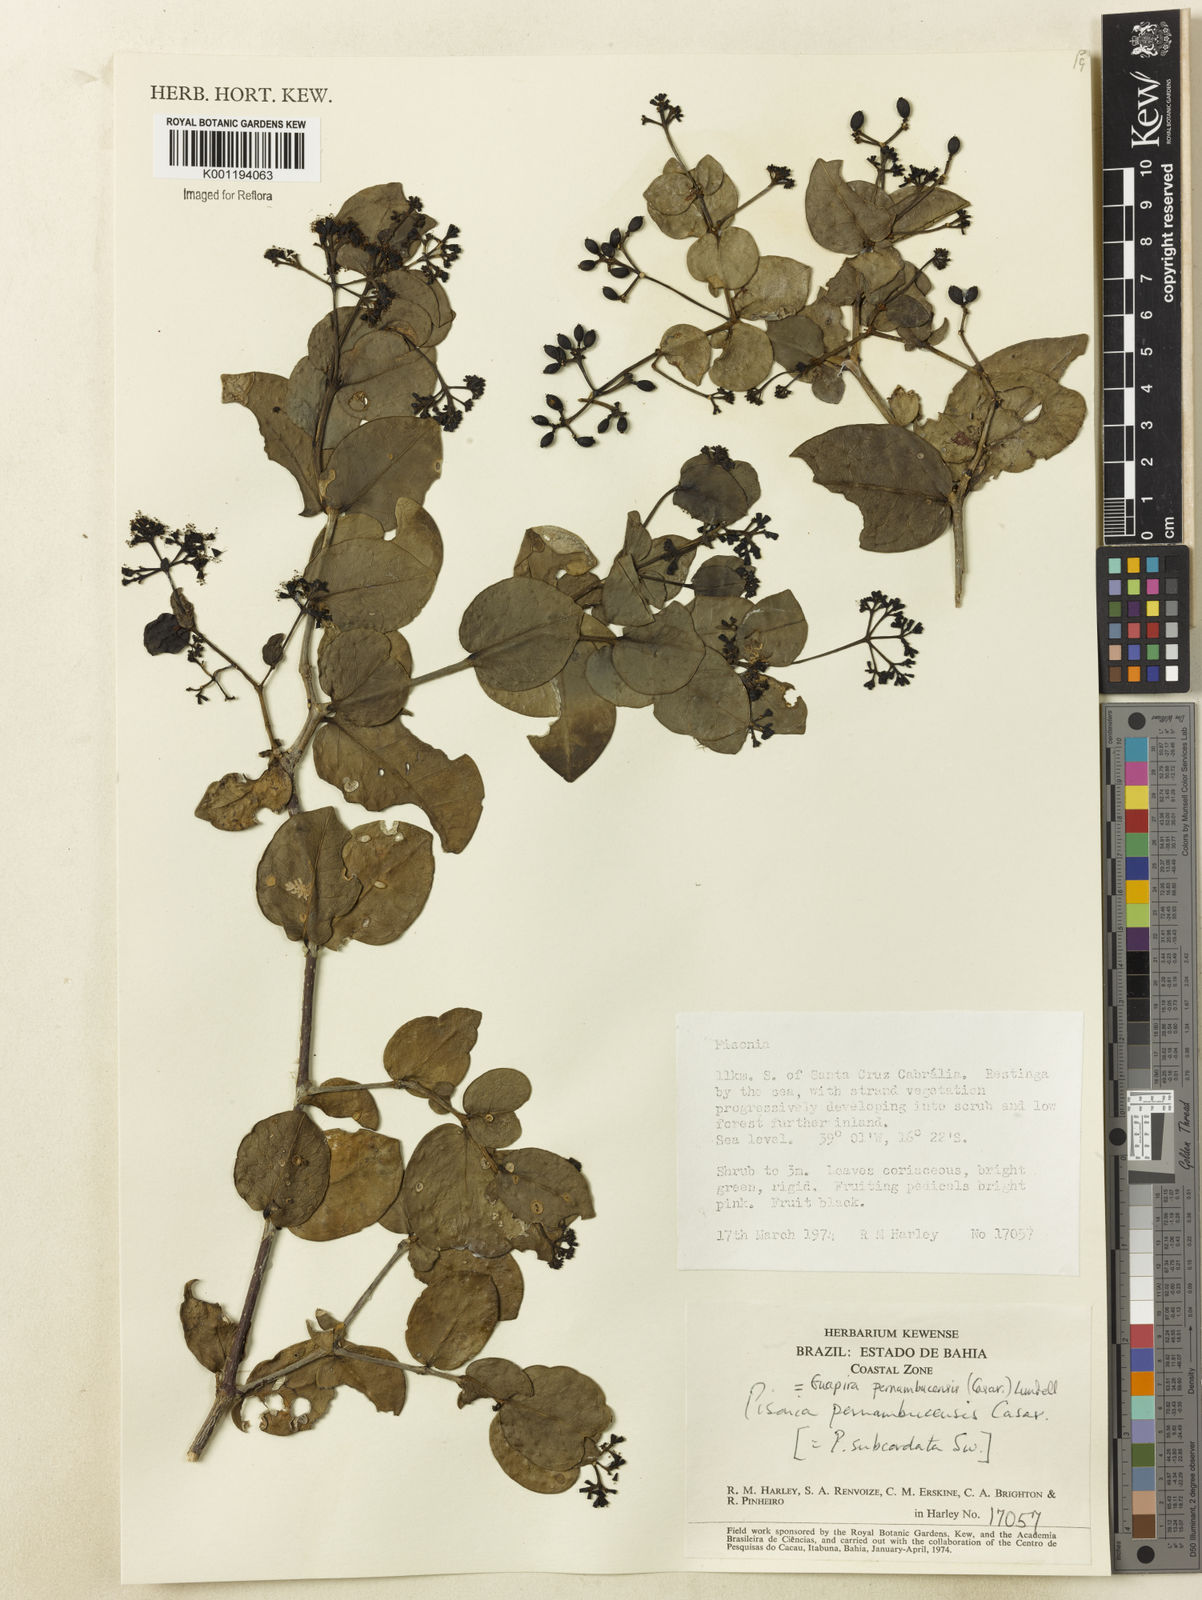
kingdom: Plantae
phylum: Tracheophyta
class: Magnoliopsida
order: Caryophyllales
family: Nyctaginaceae
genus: Guapira
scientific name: Guapira pernambucensis
